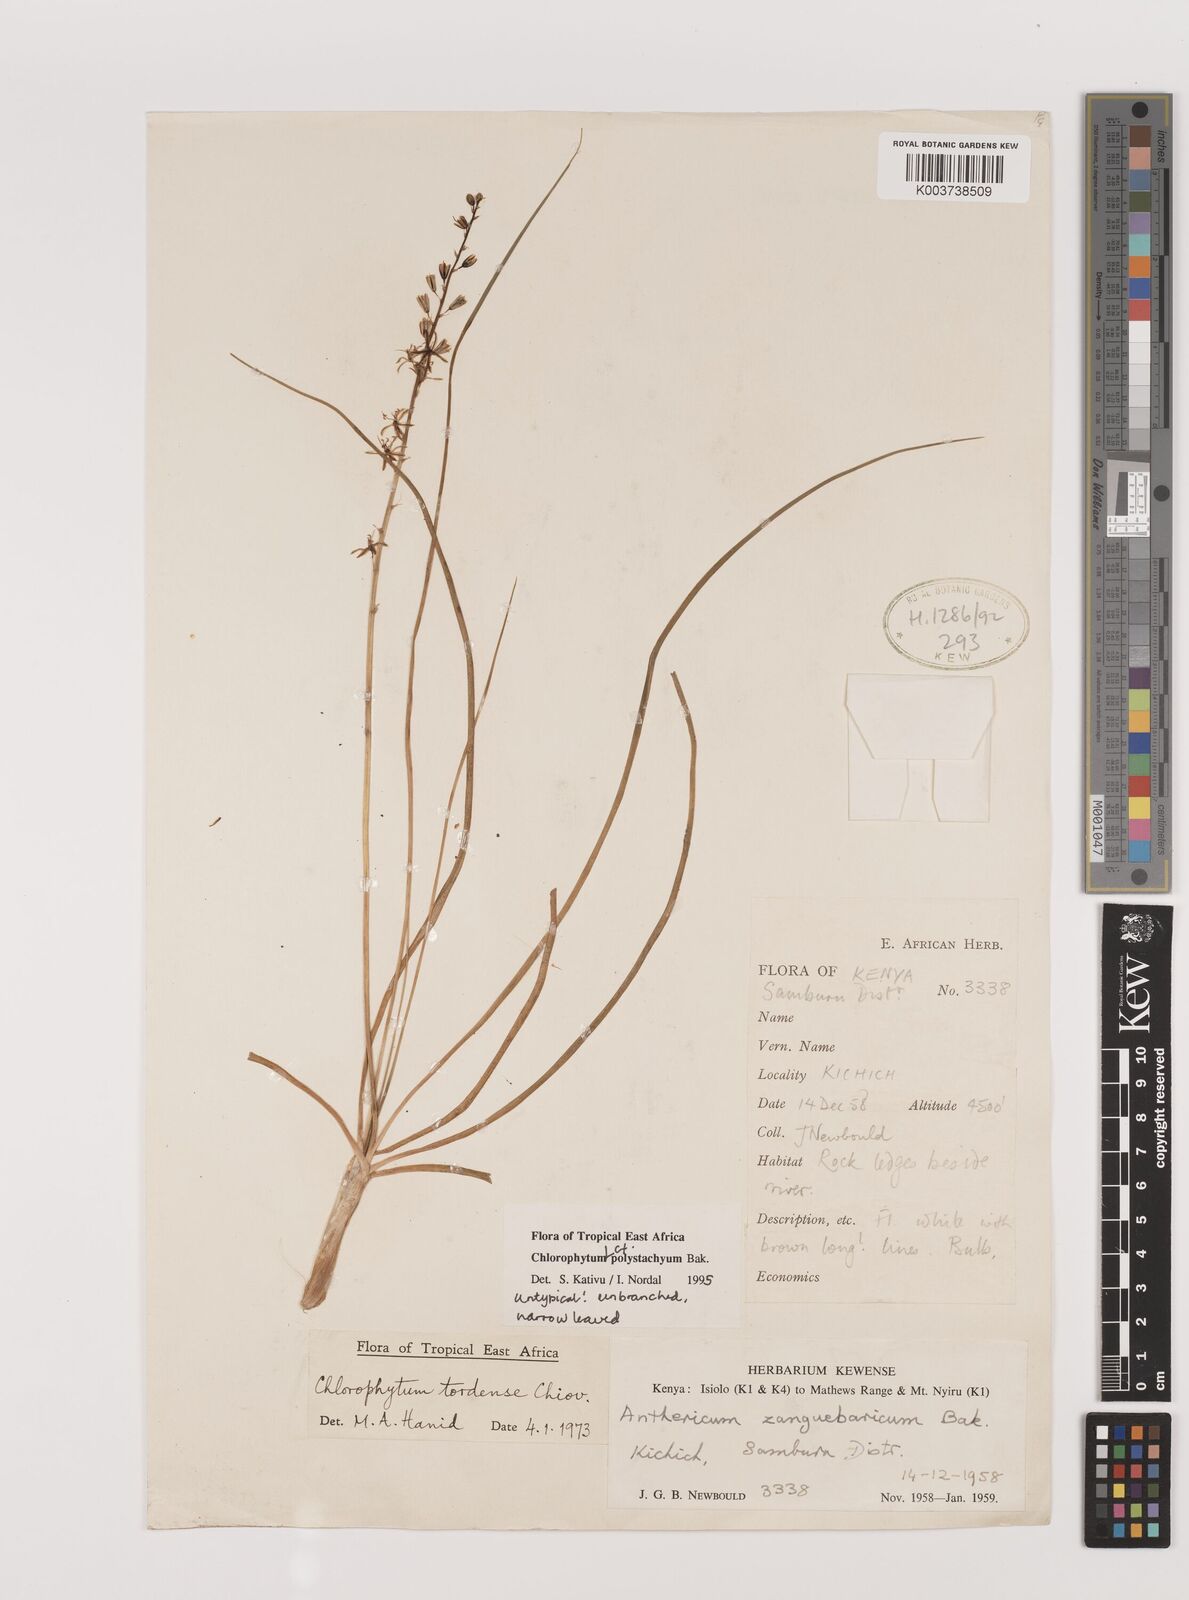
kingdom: Plantae
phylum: Tracheophyta
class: Liliopsida
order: Asparagales
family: Asparagaceae
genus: Chlorophytum
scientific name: Chlorophytum polystachys
